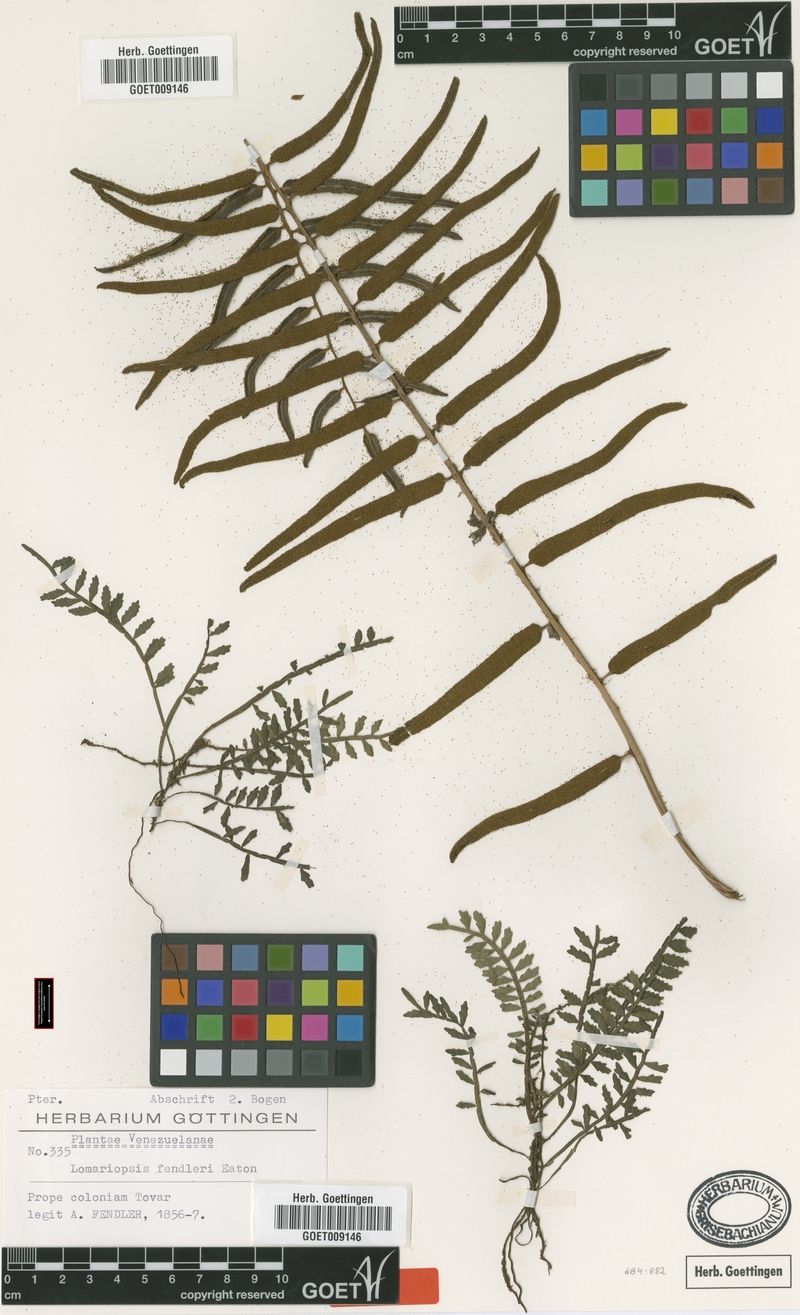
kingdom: Plantae
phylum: Tracheophyta
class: Polypodiopsida
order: Polypodiales
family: Lomariopsidaceae
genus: Lomariopsis
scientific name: Lomariopsis sorbifolia
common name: Acacia fringedfern
